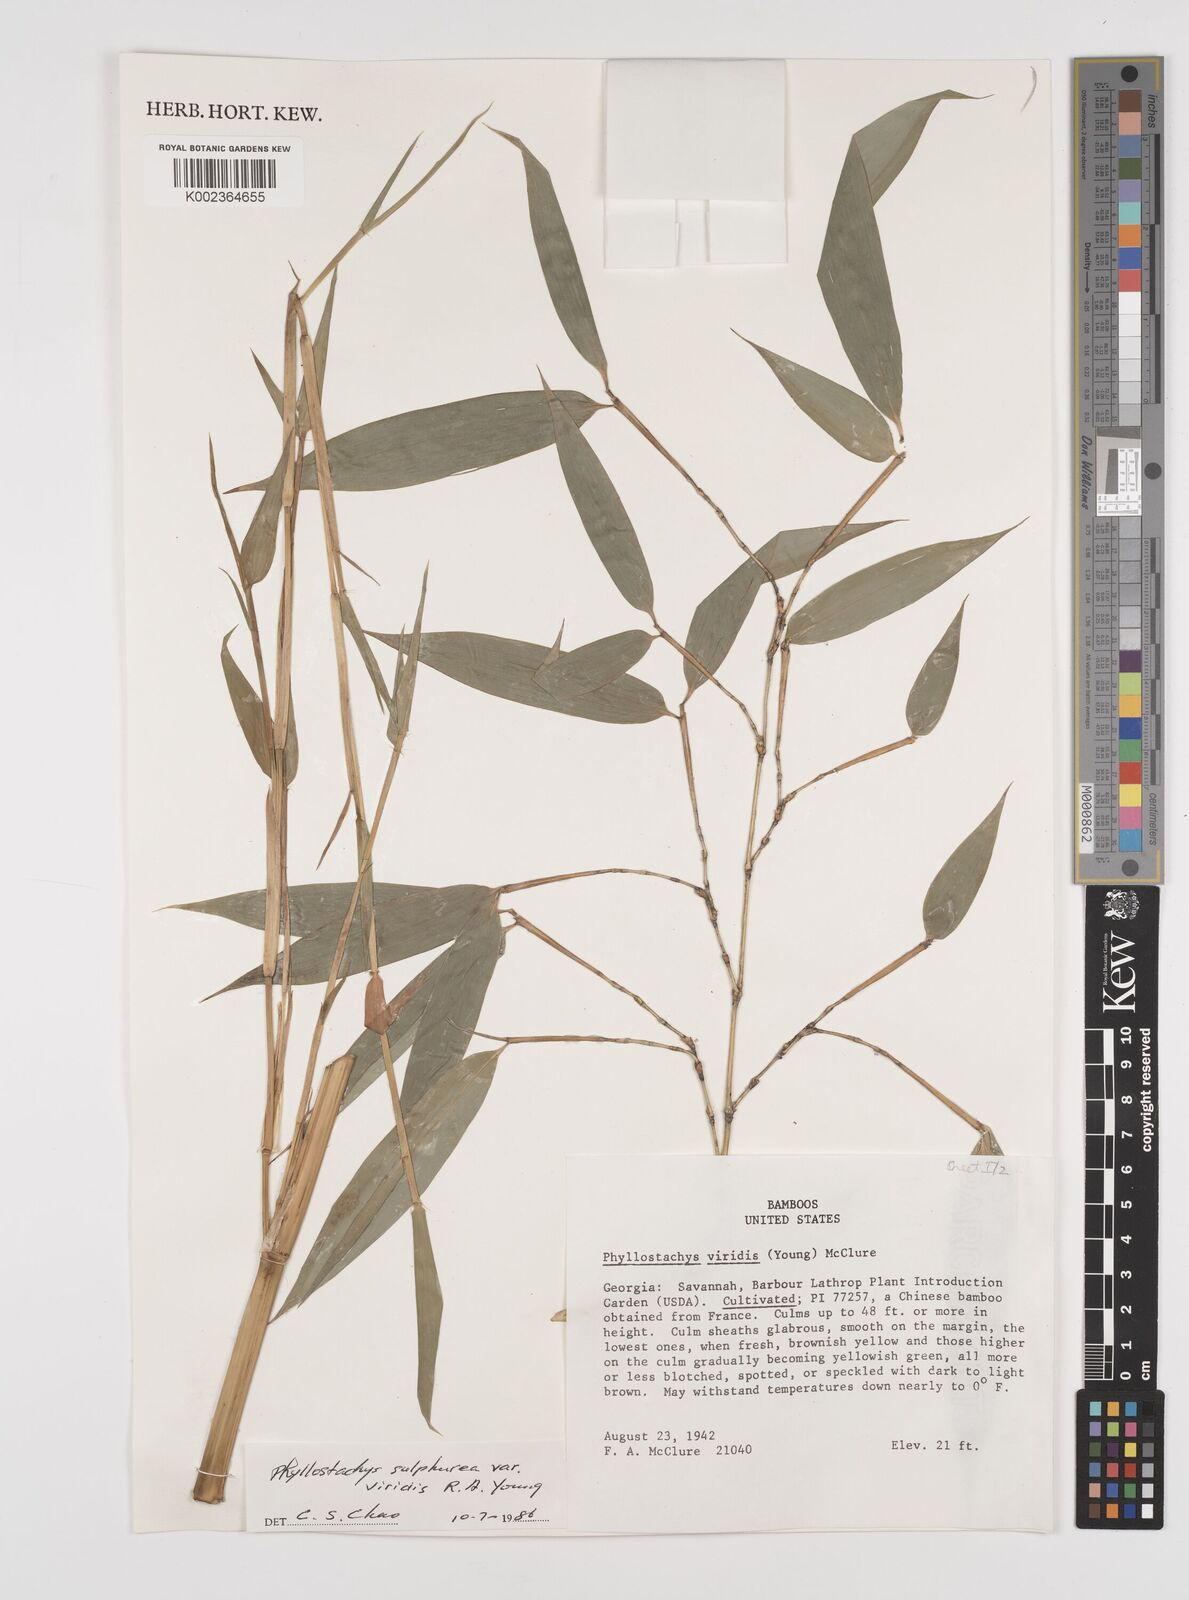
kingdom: Plantae
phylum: Tracheophyta
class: Liliopsida
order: Poales
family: Poaceae
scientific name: Poaceae
